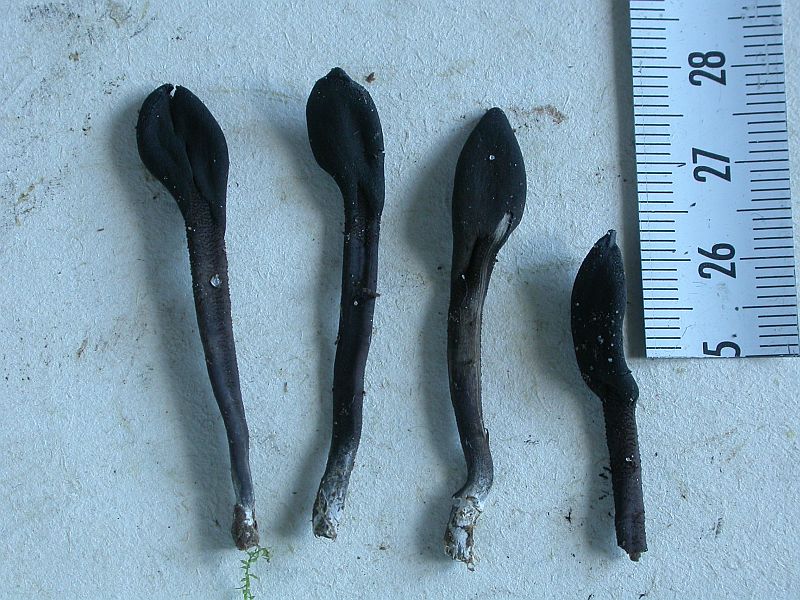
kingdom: Fungi
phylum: Ascomycota
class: Geoglossomycetes
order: Geoglossales
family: Geoglossaceae
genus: Geoglossum
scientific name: Geoglossum fallax
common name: småskællet jordtunge
